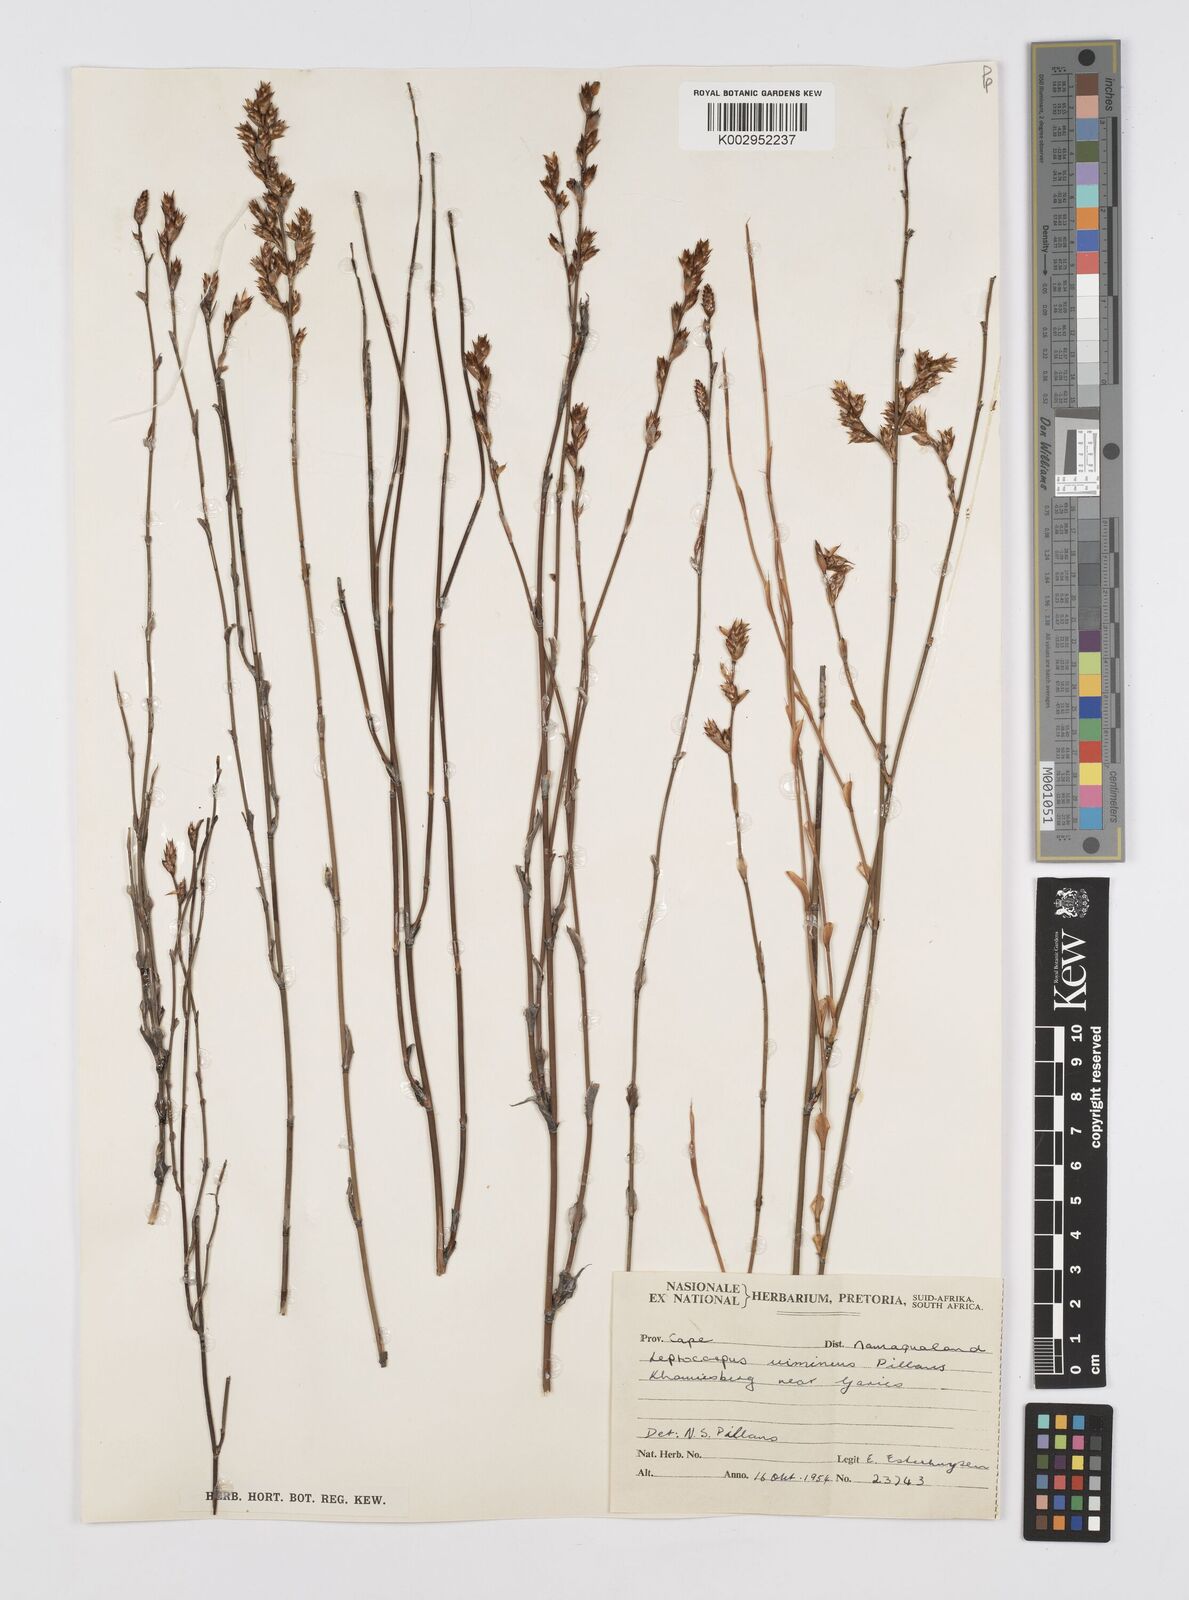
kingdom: Plantae
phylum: Tracheophyta
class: Liliopsida
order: Poales
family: Restionaceae
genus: Restio
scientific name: Restio vimineus
